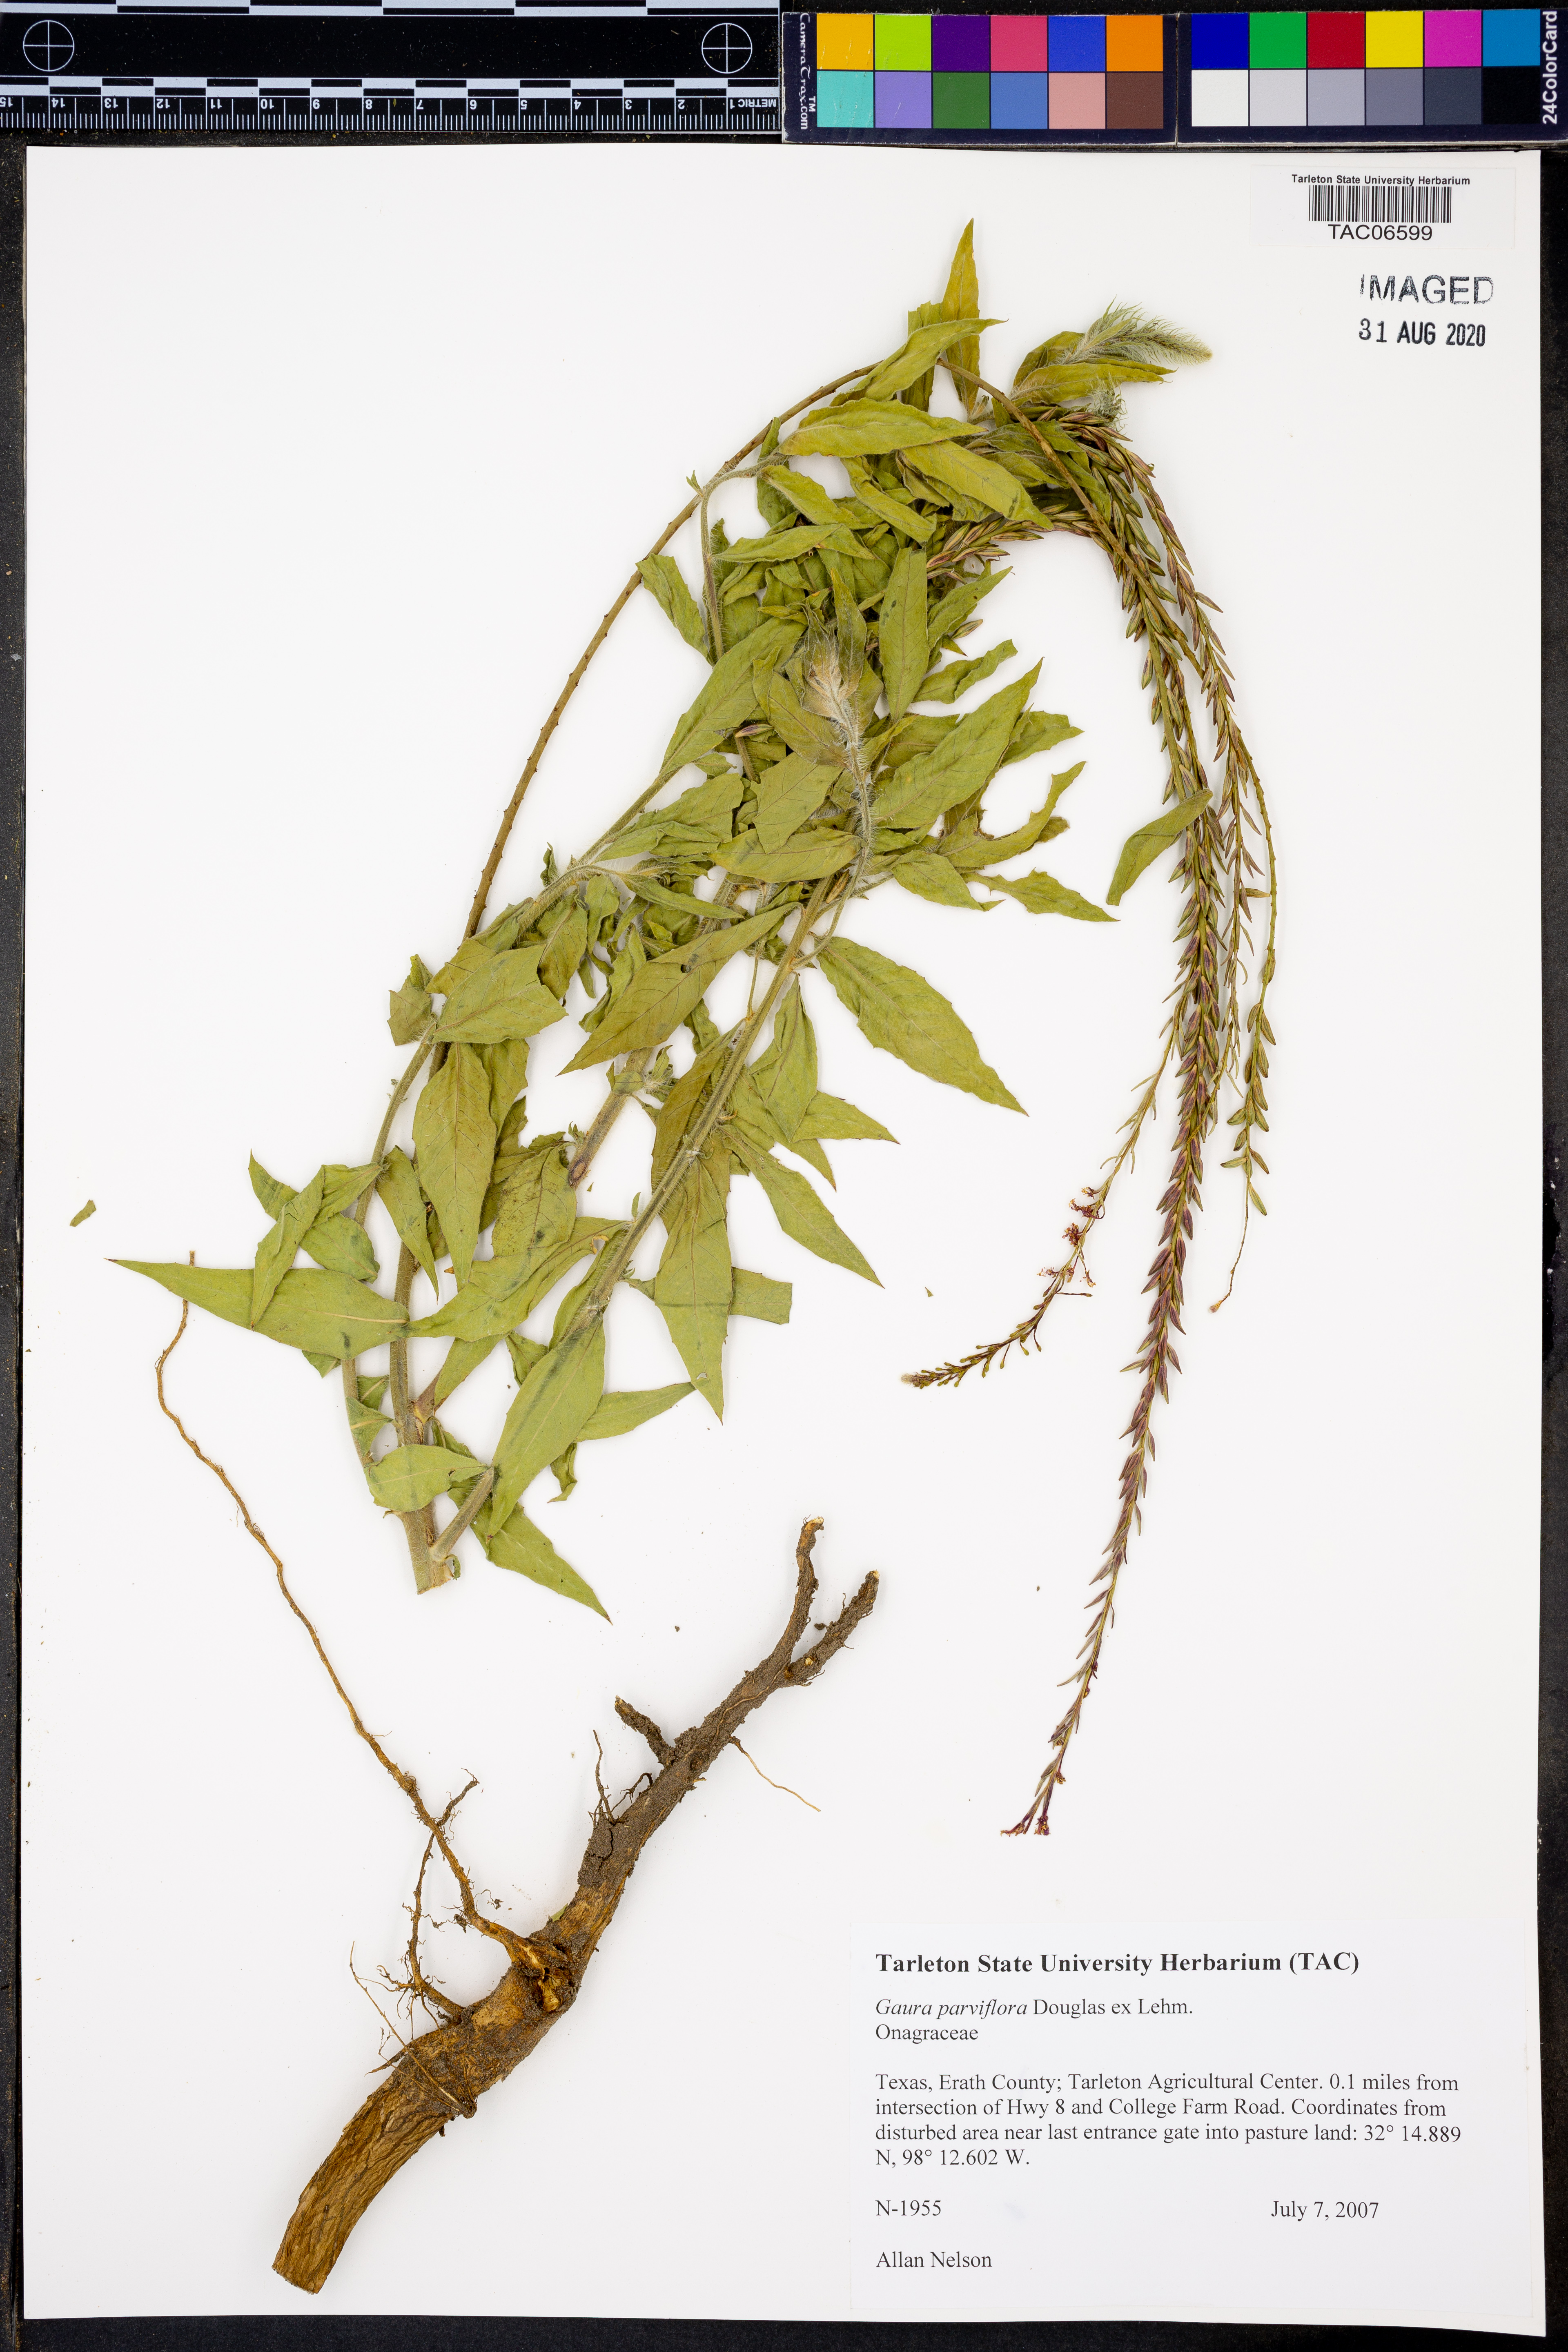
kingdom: Plantae
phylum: Tracheophyta
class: Magnoliopsida
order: Myrtales
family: Onagraceae
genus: Oenothera
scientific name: Oenothera curtiflora
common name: Velvetweed
